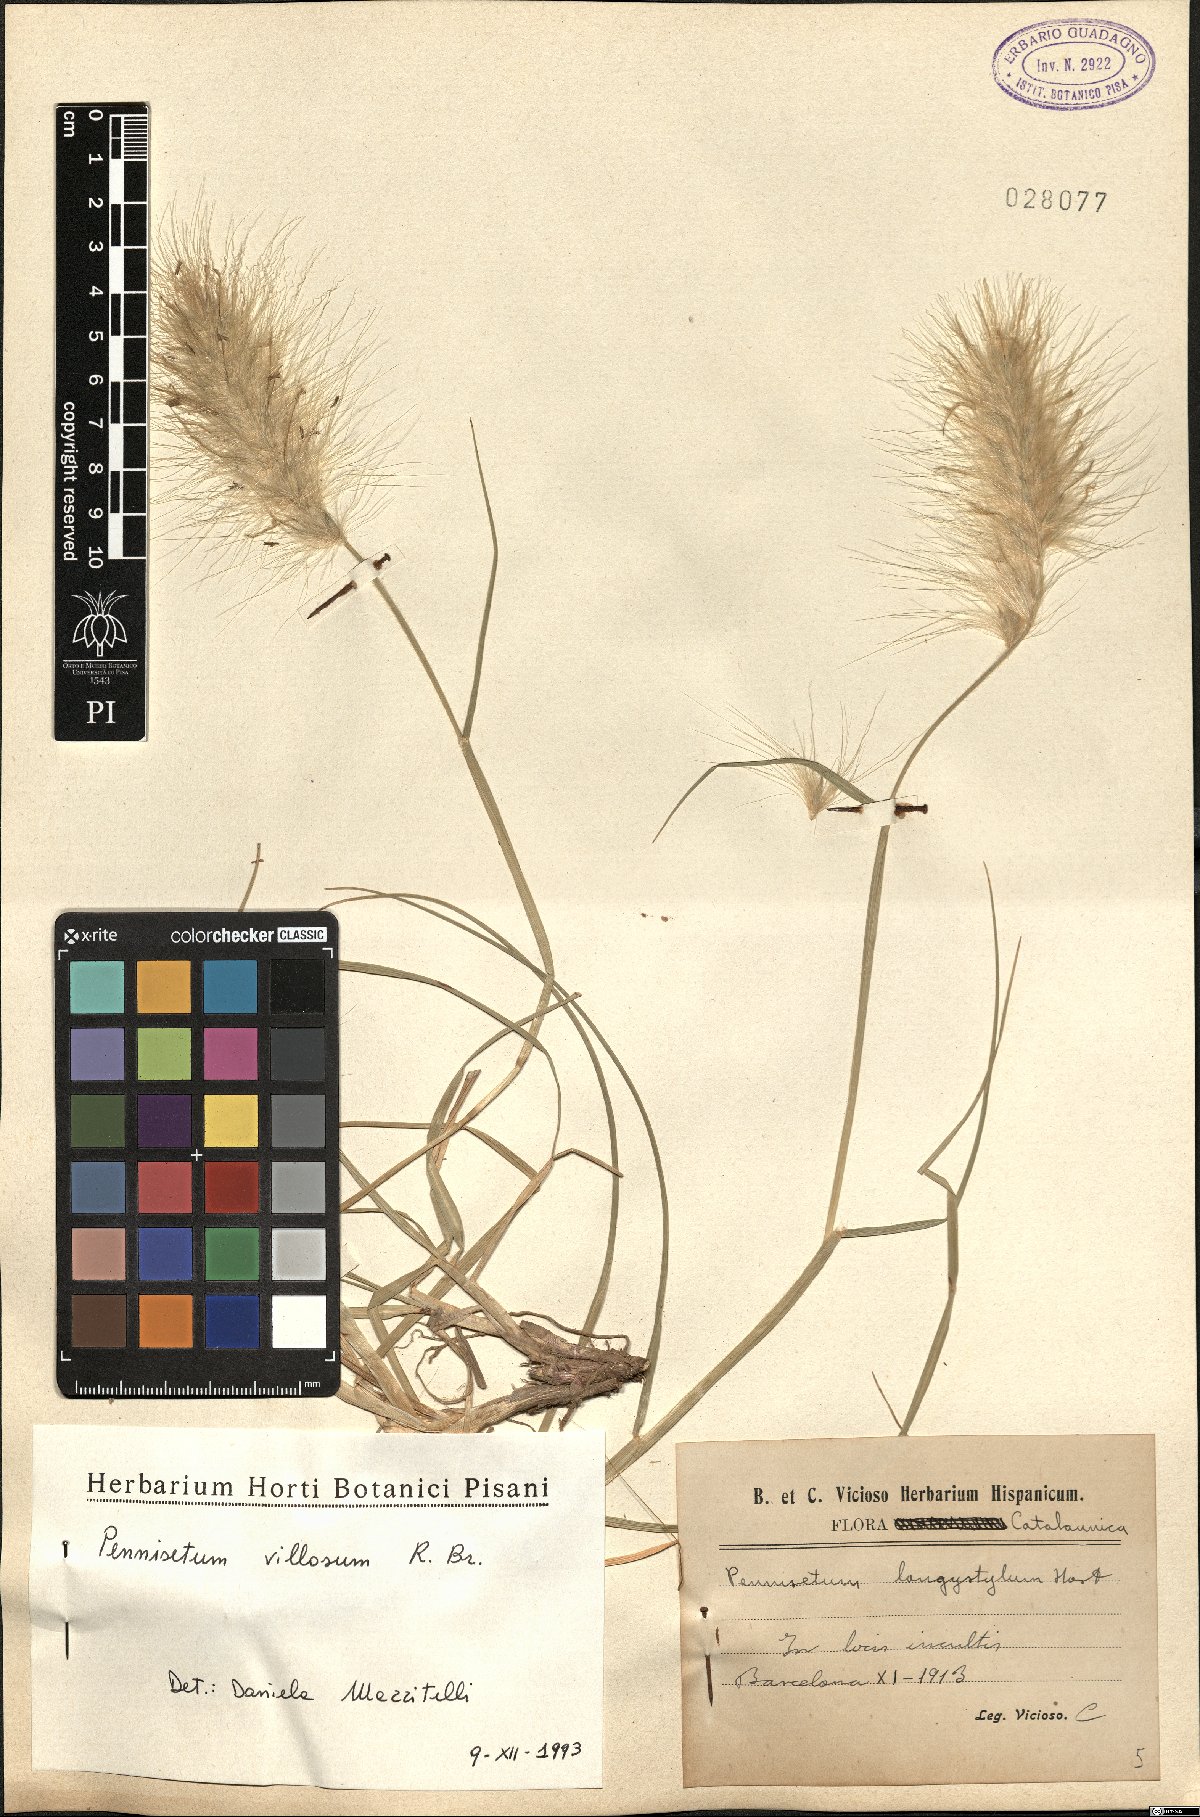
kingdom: Plantae
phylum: Tracheophyta
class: Liliopsida
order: Poales
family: Poaceae
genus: Cenchrus
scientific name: Cenchrus longisetus
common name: Feathertop
